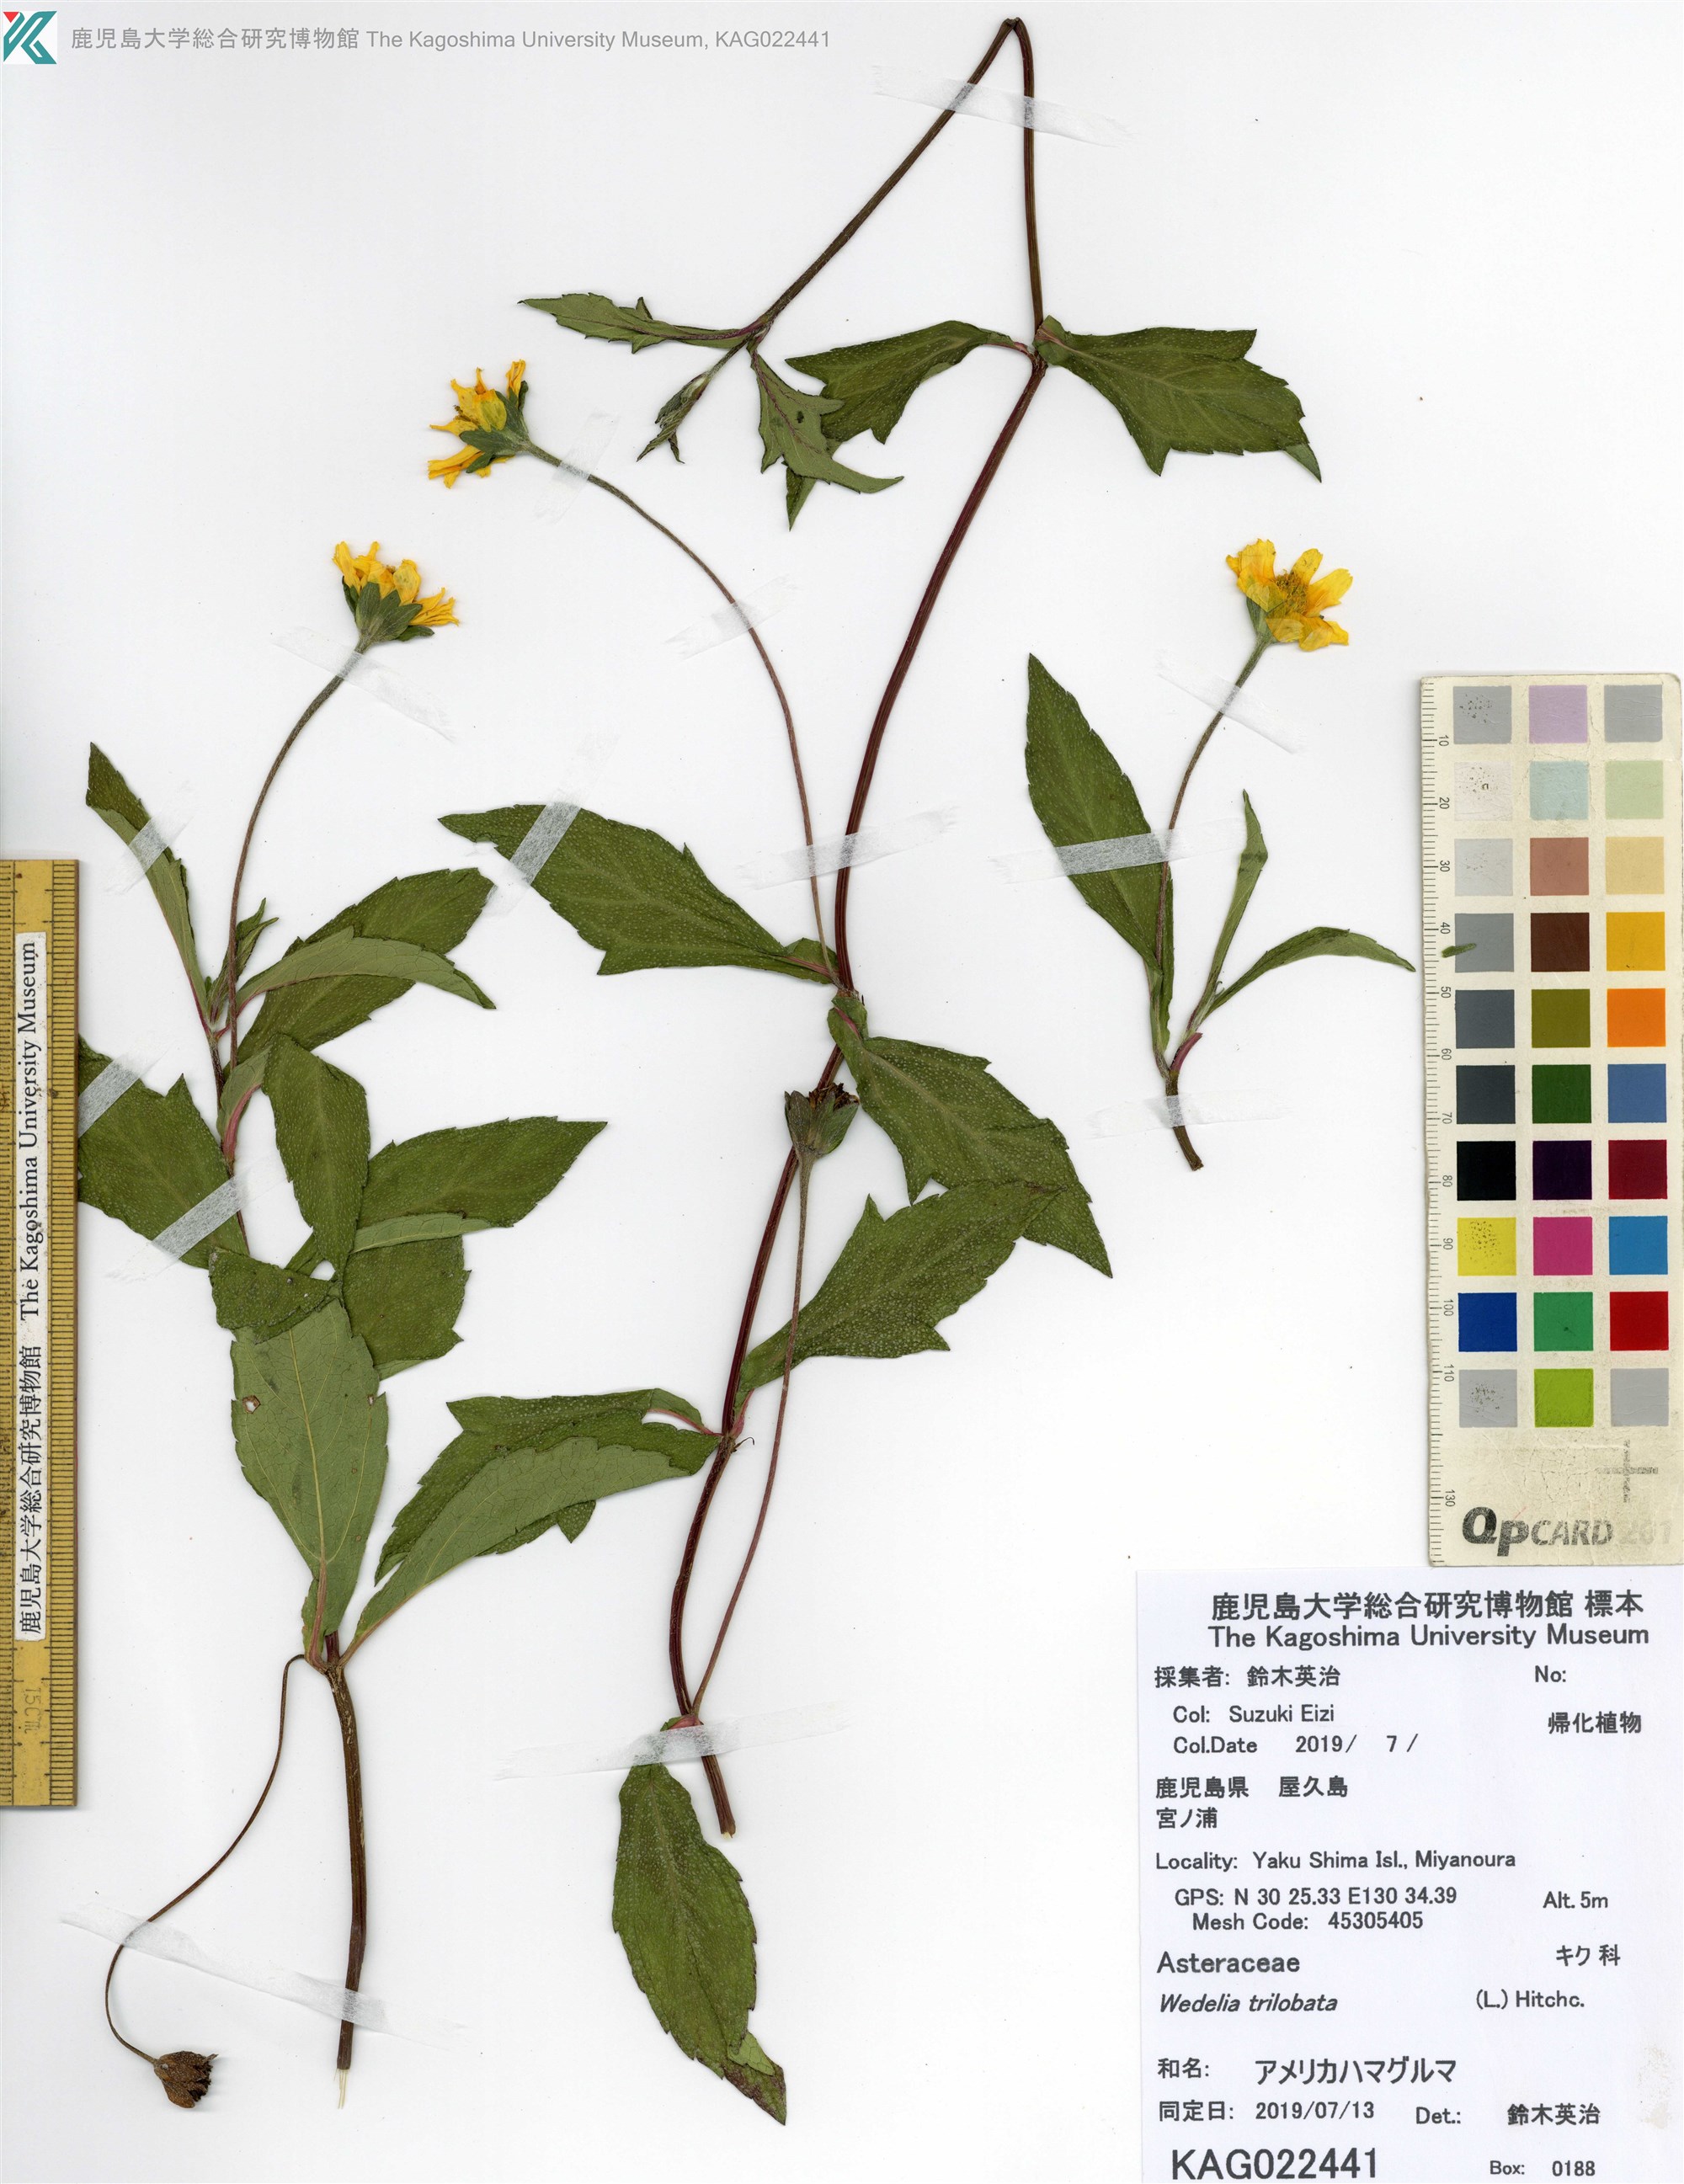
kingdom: Plantae
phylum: Tracheophyta
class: Magnoliopsida
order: Asterales
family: Asteraceae
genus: Sphagneticola
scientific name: Sphagneticola trilobata
